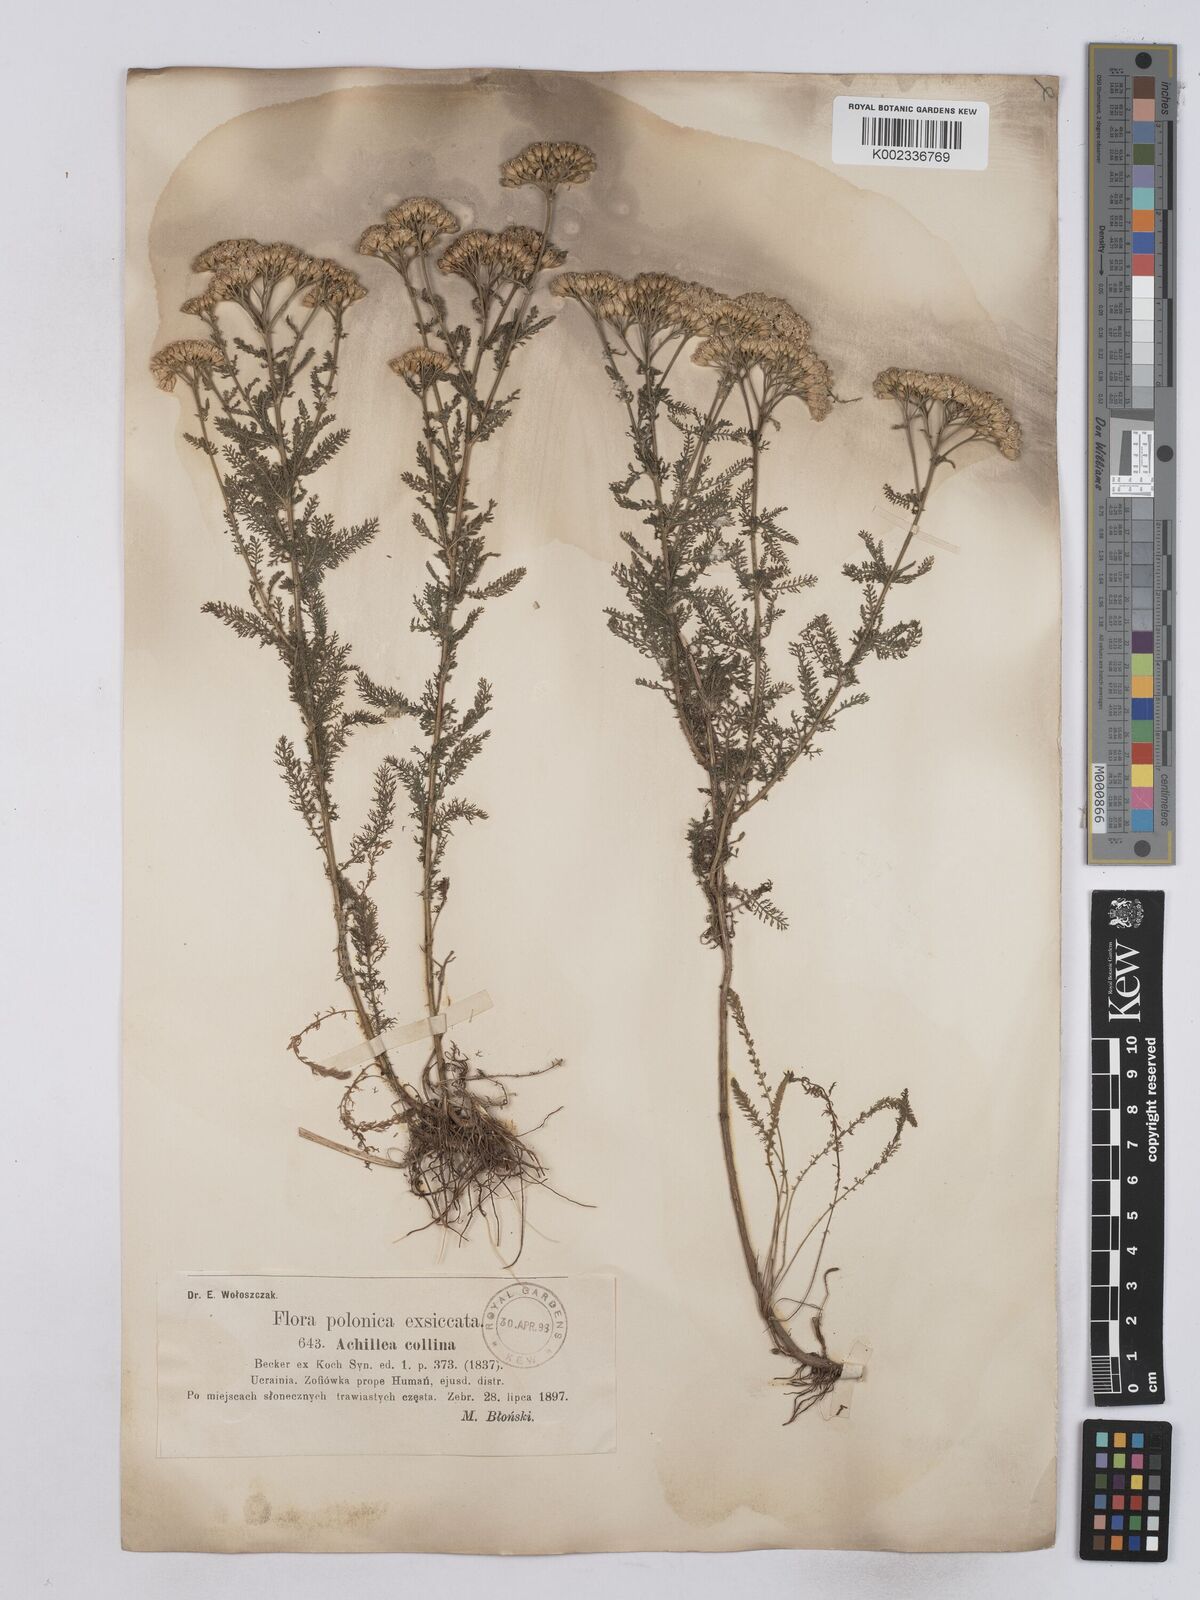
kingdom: Plantae
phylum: Tracheophyta
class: Magnoliopsida
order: Asterales
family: Asteraceae
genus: Achillea
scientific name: Achillea collina
